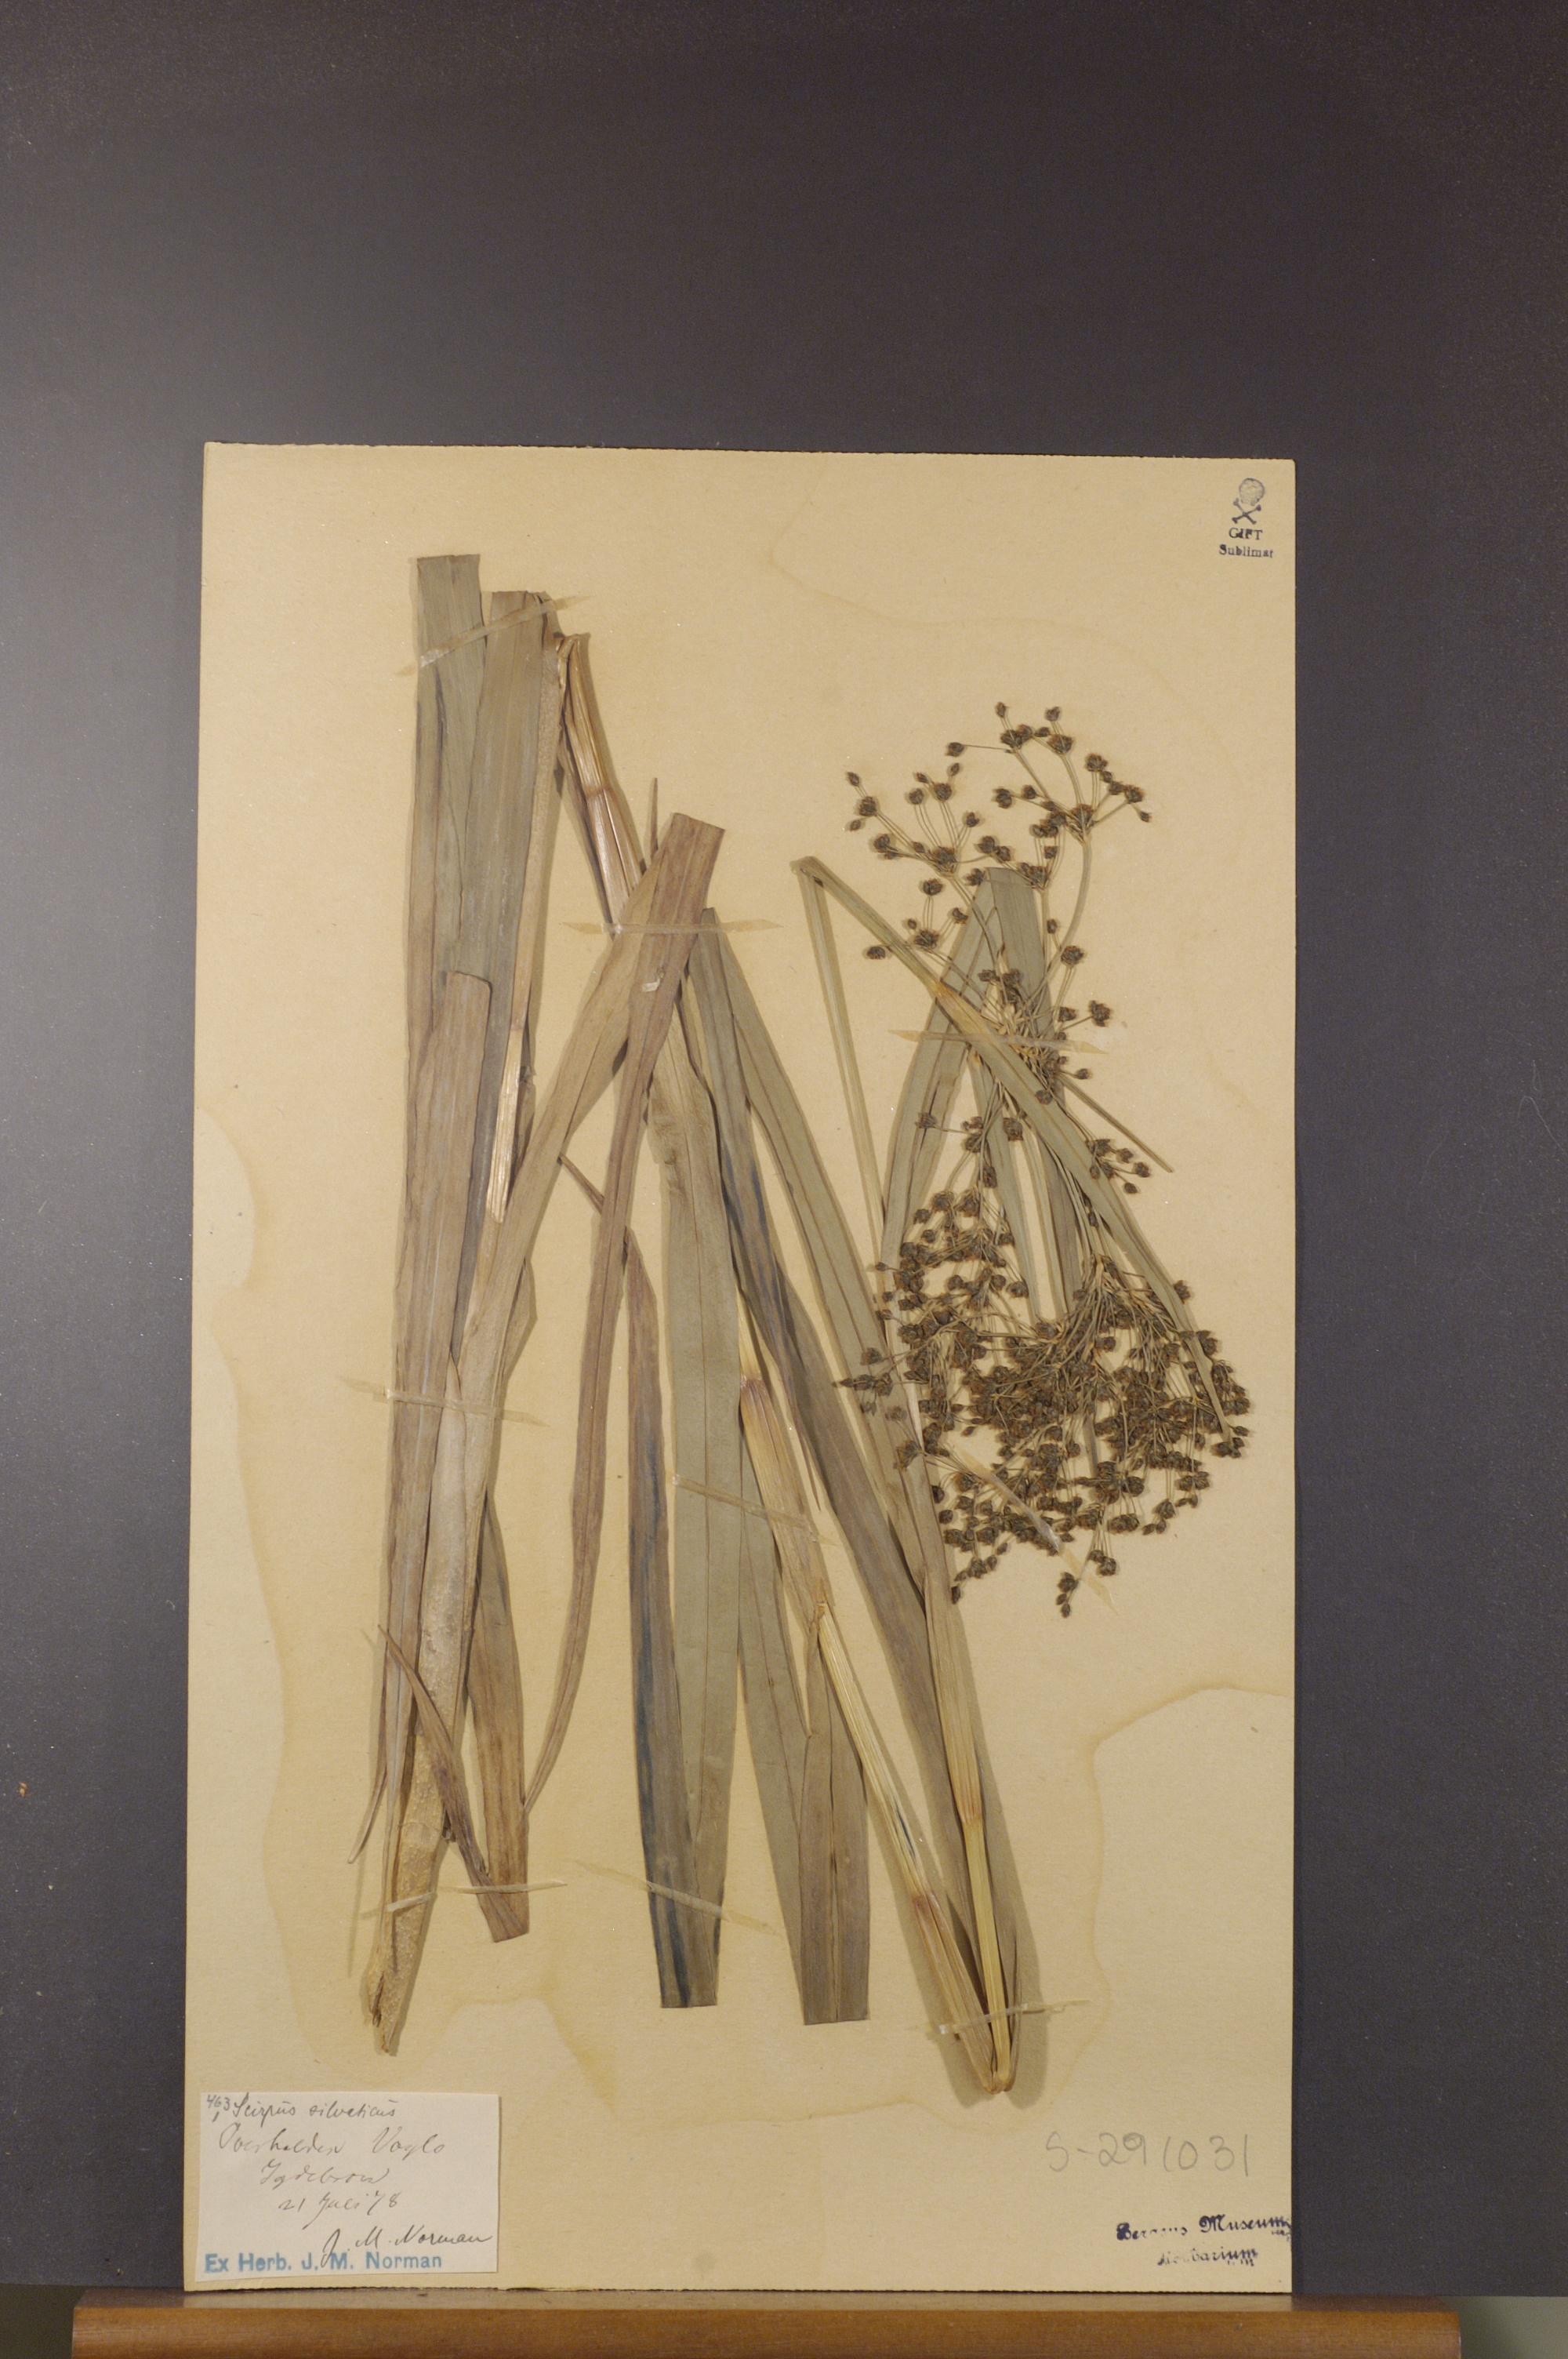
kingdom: Plantae
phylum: Tracheophyta
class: Liliopsida
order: Poales
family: Cyperaceae
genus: Scirpus
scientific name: Scirpus sylvaticus
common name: Wood club-rush
